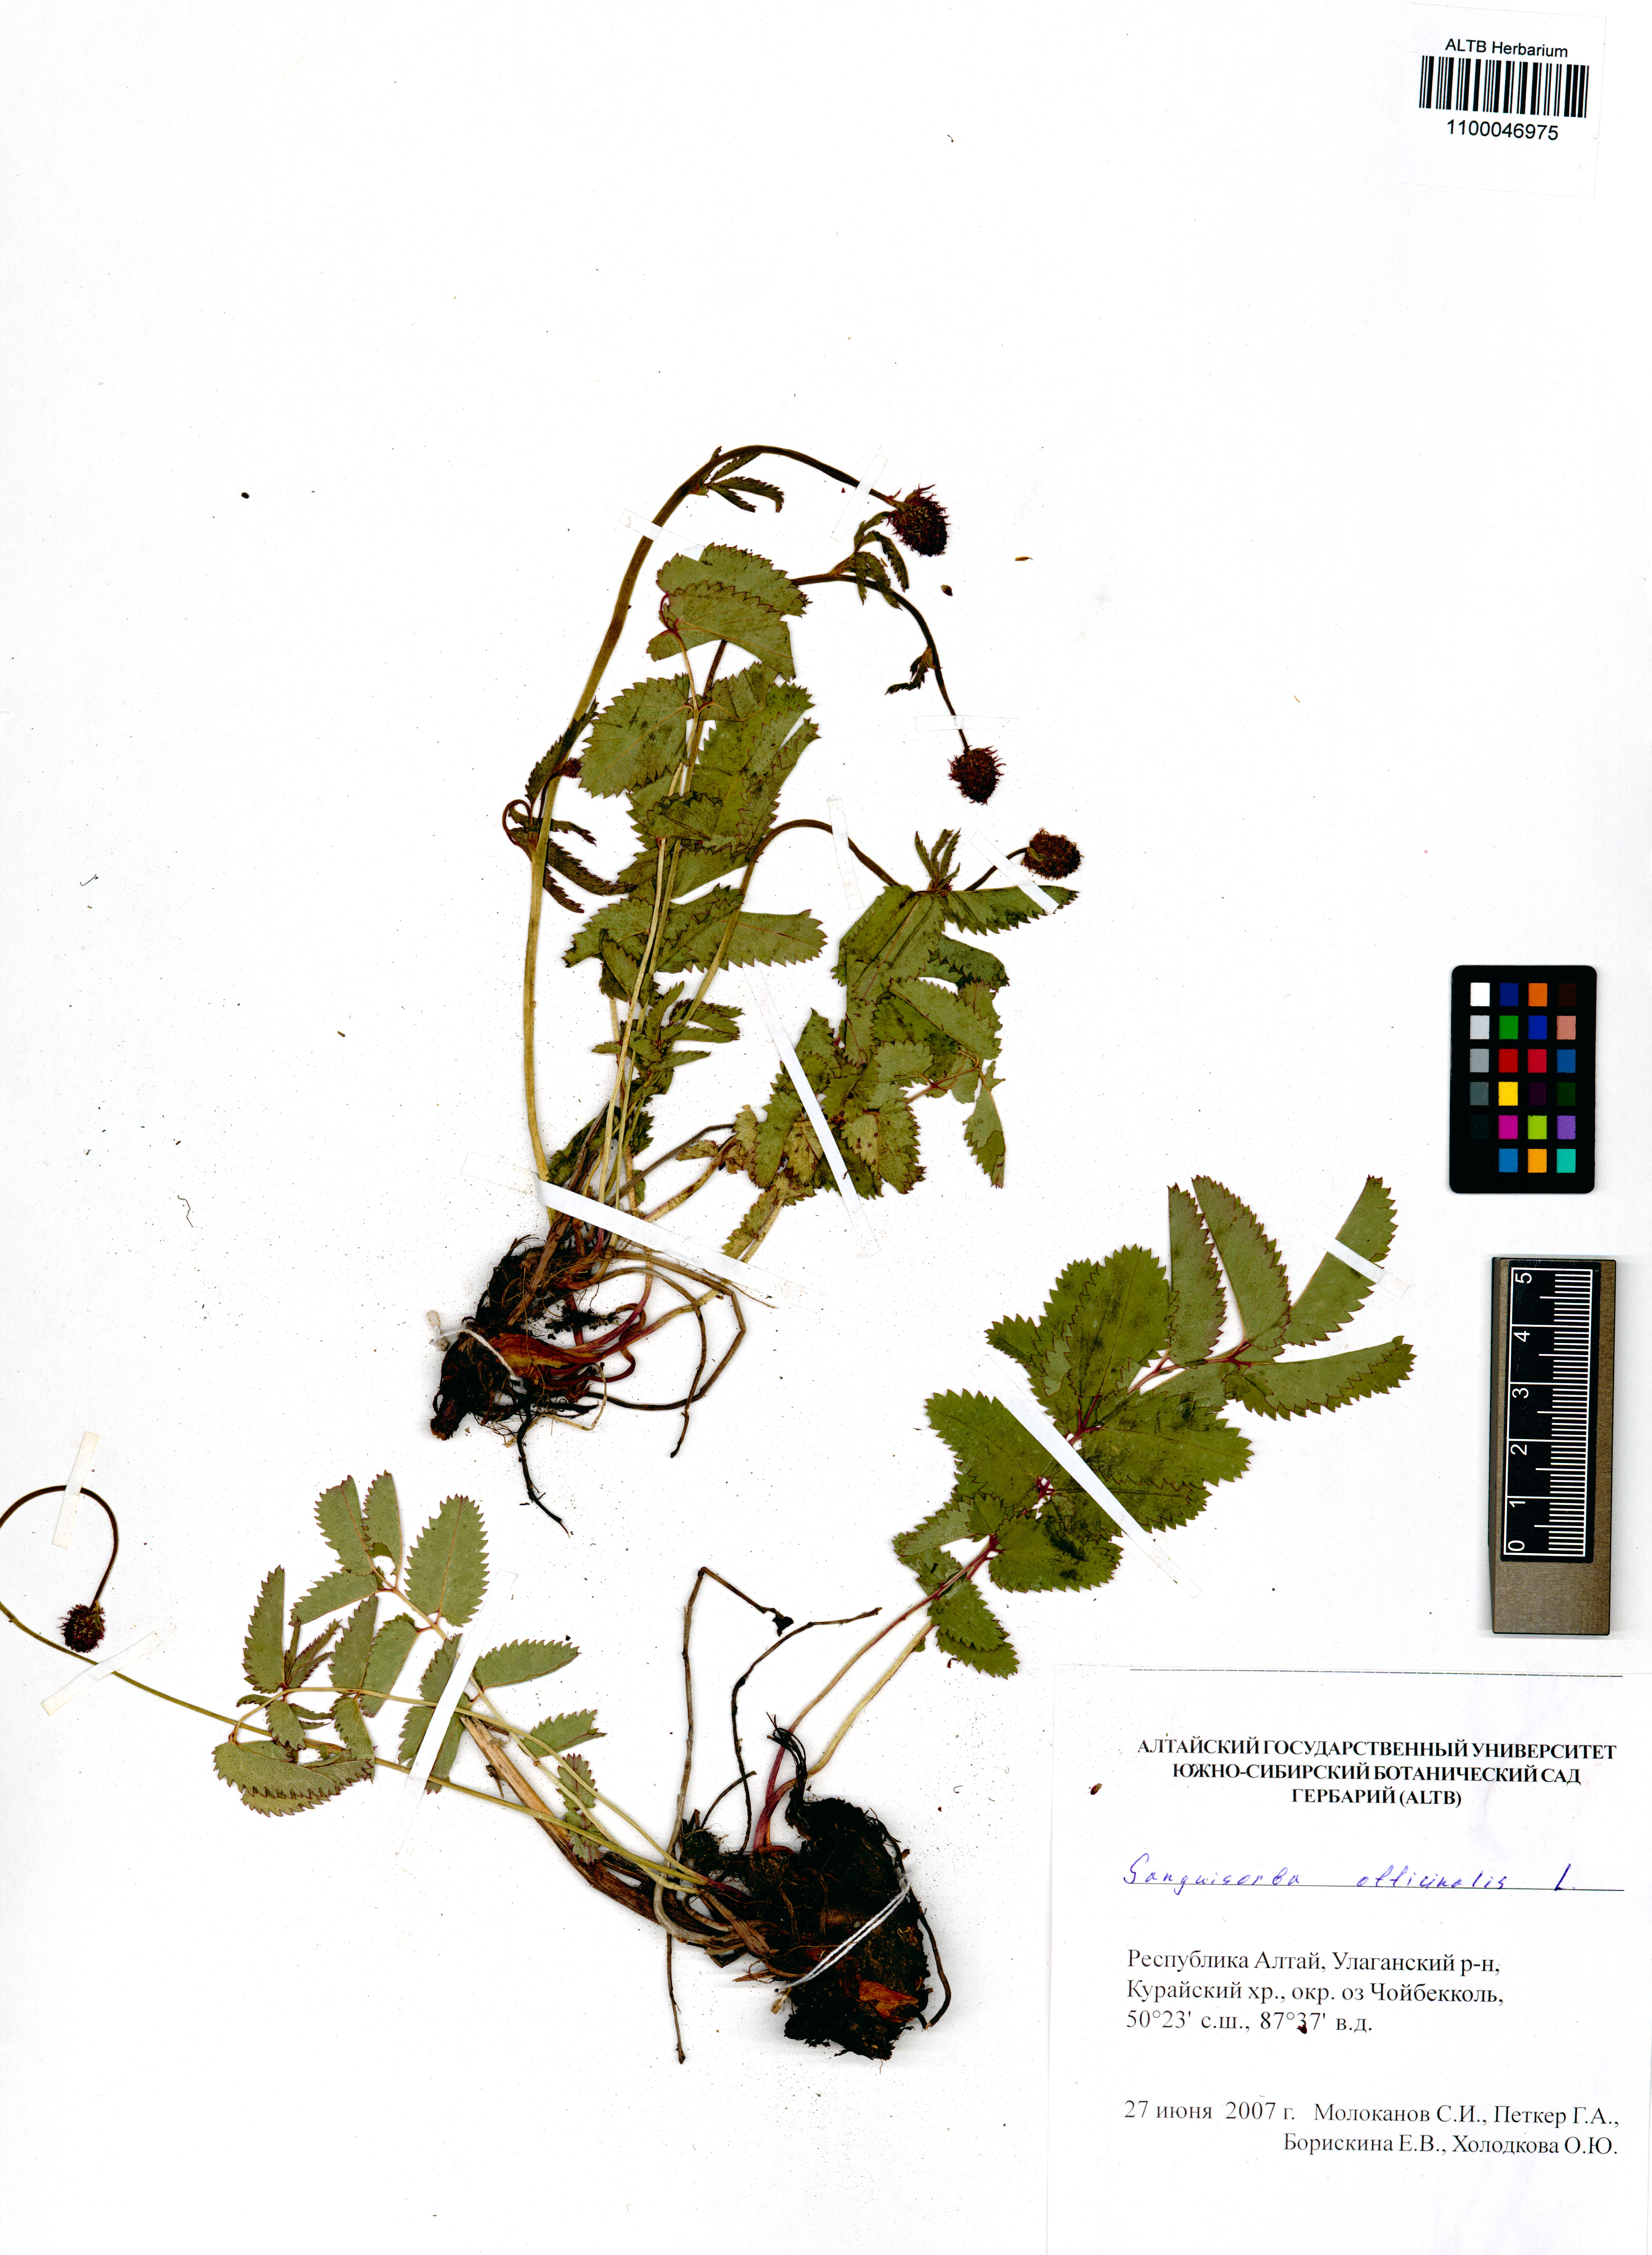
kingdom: Plantae
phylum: Tracheophyta
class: Magnoliopsida
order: Rosales
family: Rosaceae
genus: Sanguisorba
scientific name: Sanguisorba officinalis
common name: Great burnet
